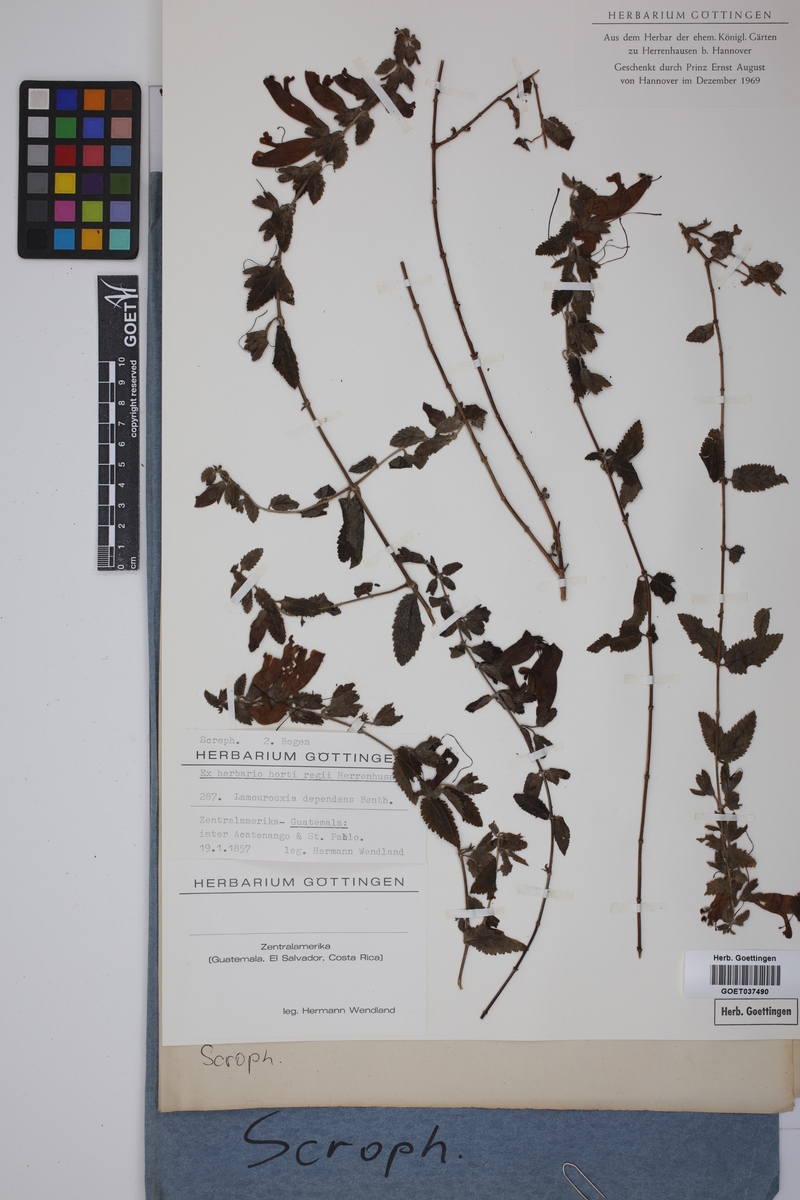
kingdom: Plantae
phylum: Tracheophyta
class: Magnoliopsida
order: Lamiales
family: Orobanchaceae
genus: Lamourouxia
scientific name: Lamourouxia dependens
